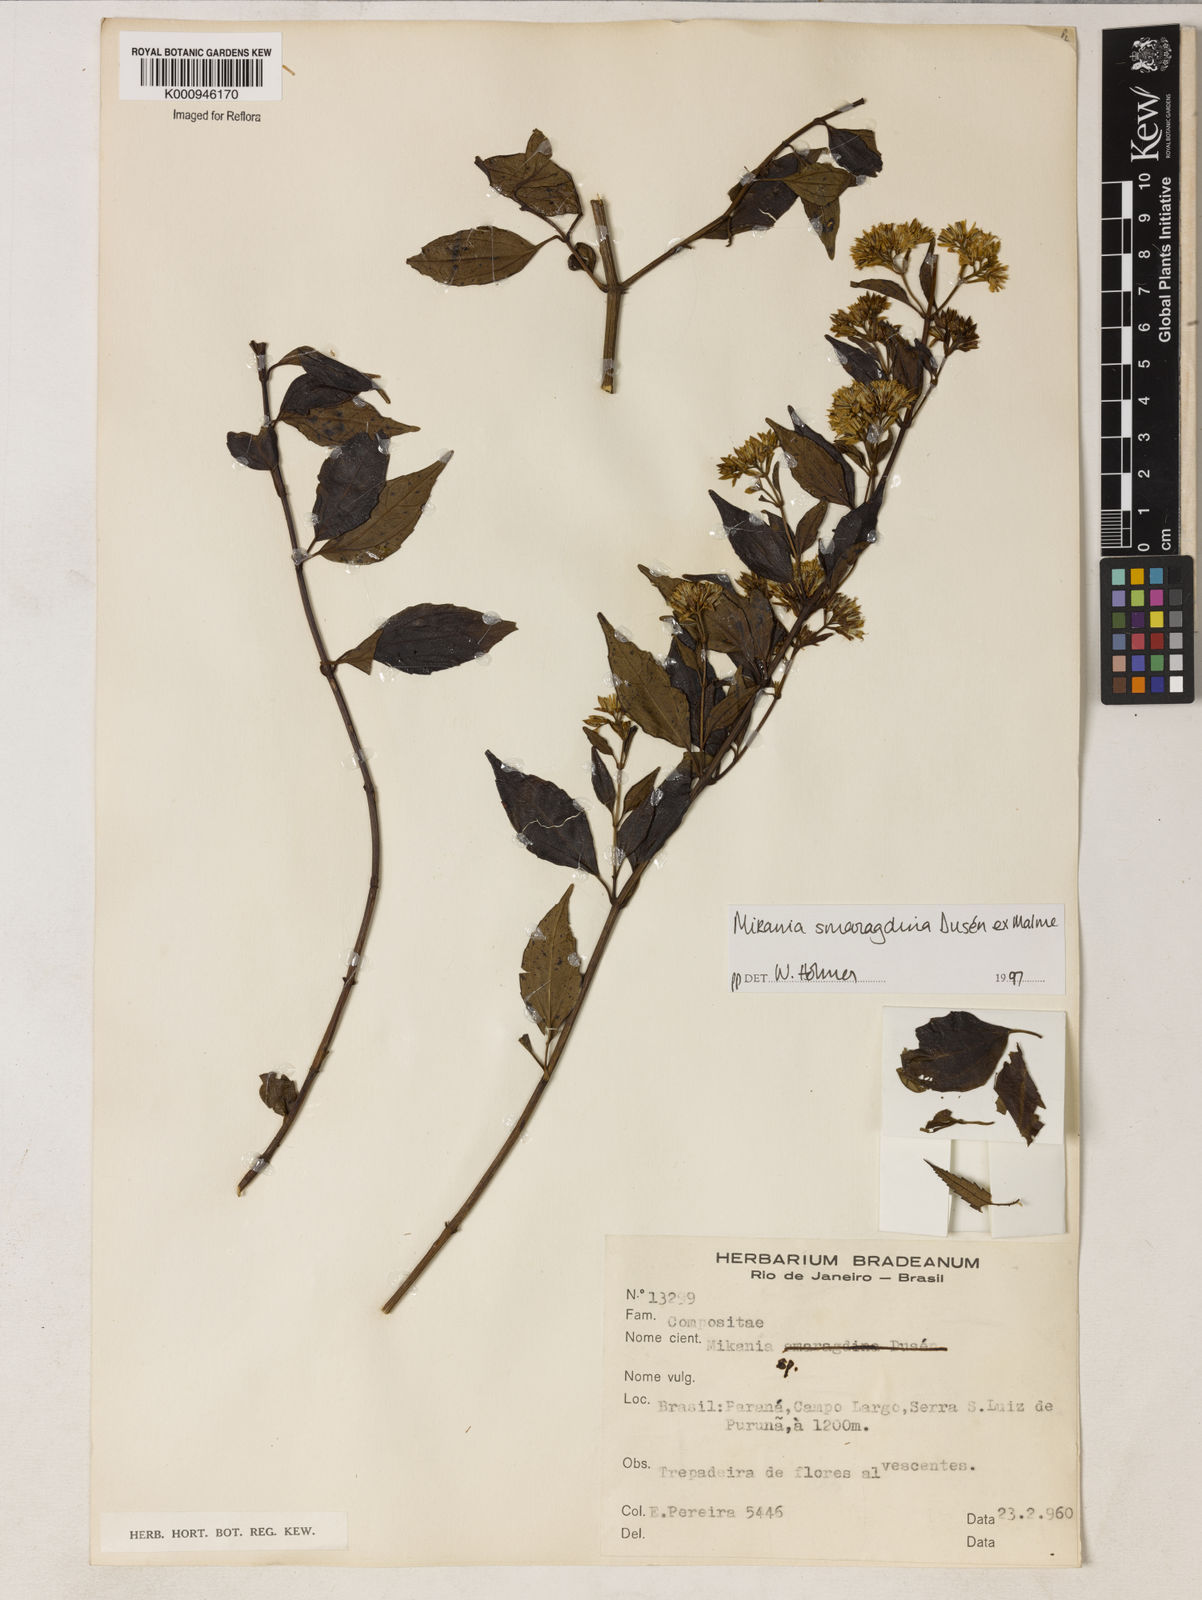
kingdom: Plantae
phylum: Tracheophyta
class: Magnoliopsida
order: Asterales
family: Asteraceae
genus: Mikania
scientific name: Mikania
